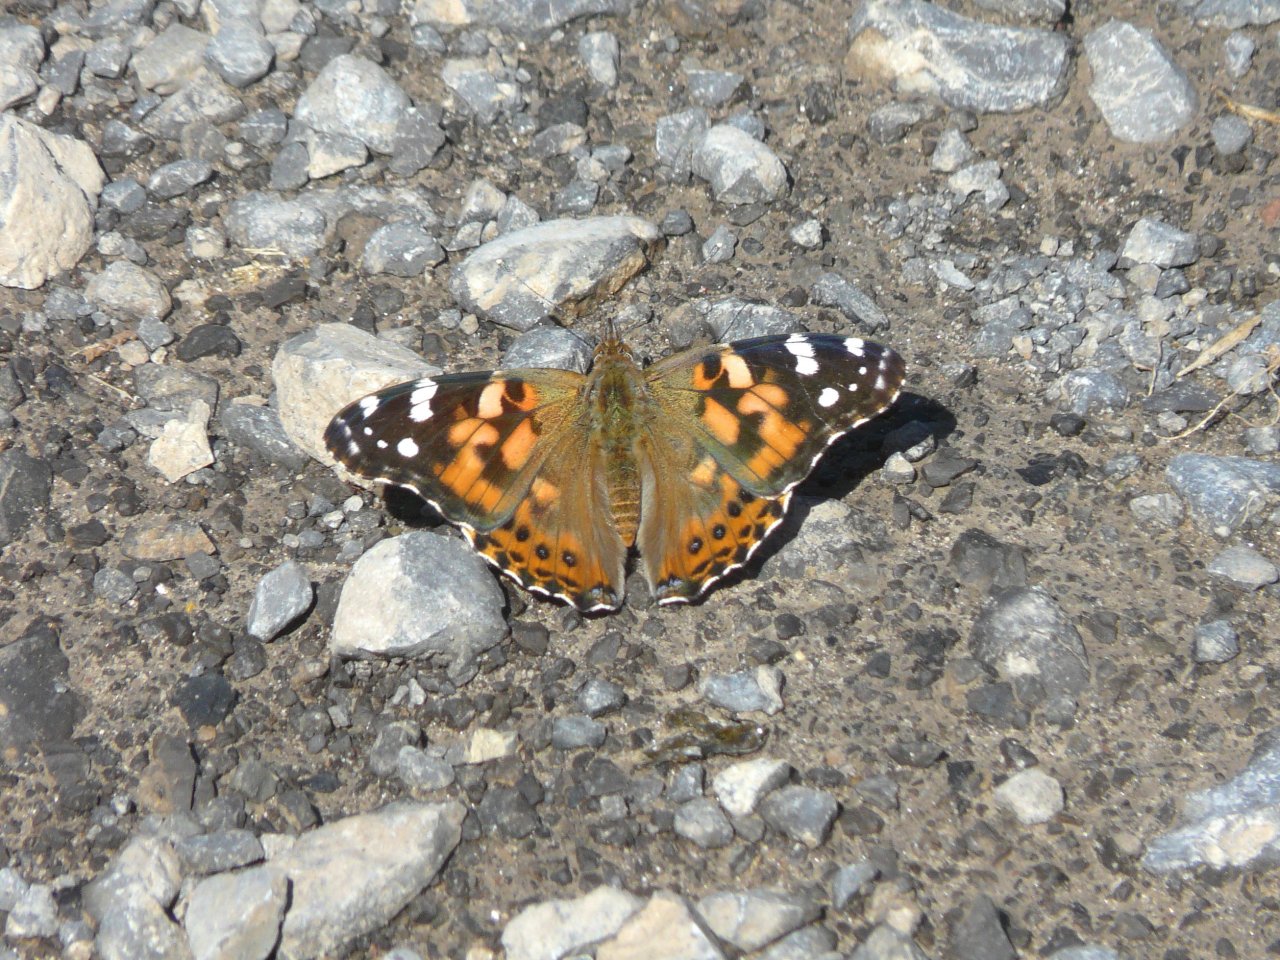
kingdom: Animalia
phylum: Arthropoda
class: Insecta
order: Lepidoptera
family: Nymphalidae
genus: Vanessa
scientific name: Vanessa cardui
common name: Painted Lady
